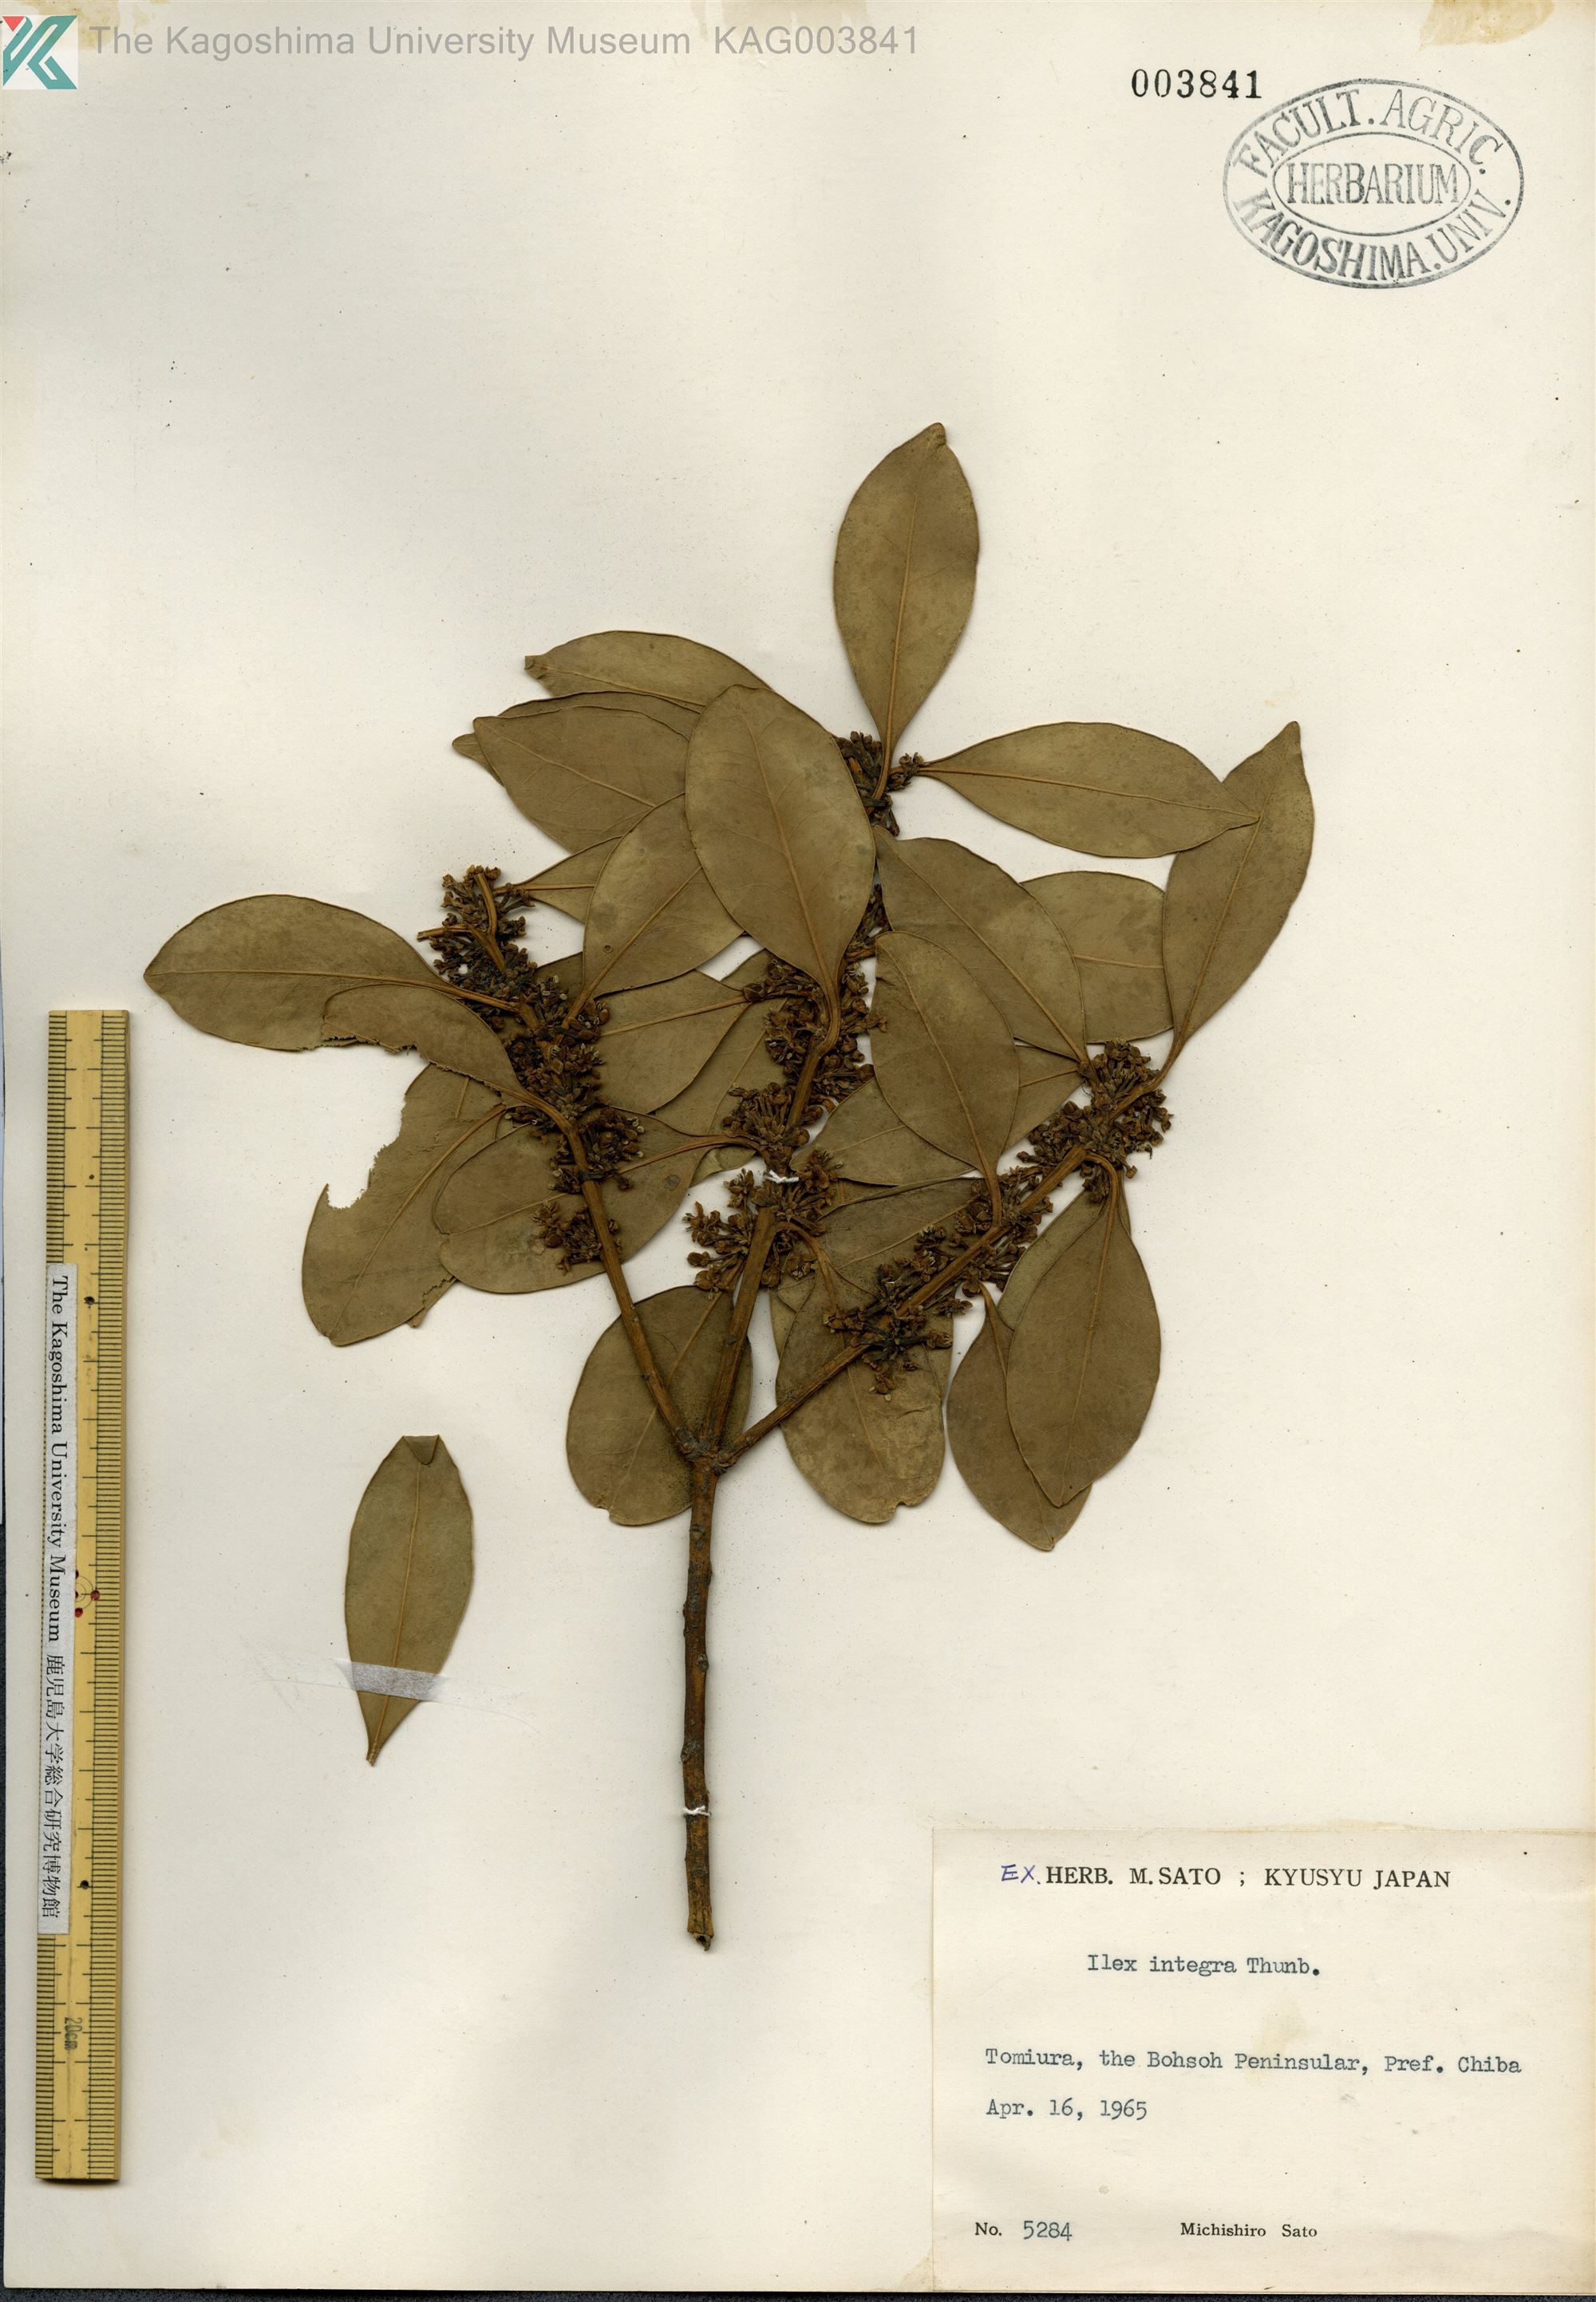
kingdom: Plantae
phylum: Tracheophyta
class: Magnoliopsida
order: Aquifoliales
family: Aquifoliaceae
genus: Ilex
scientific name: Ilex integra
